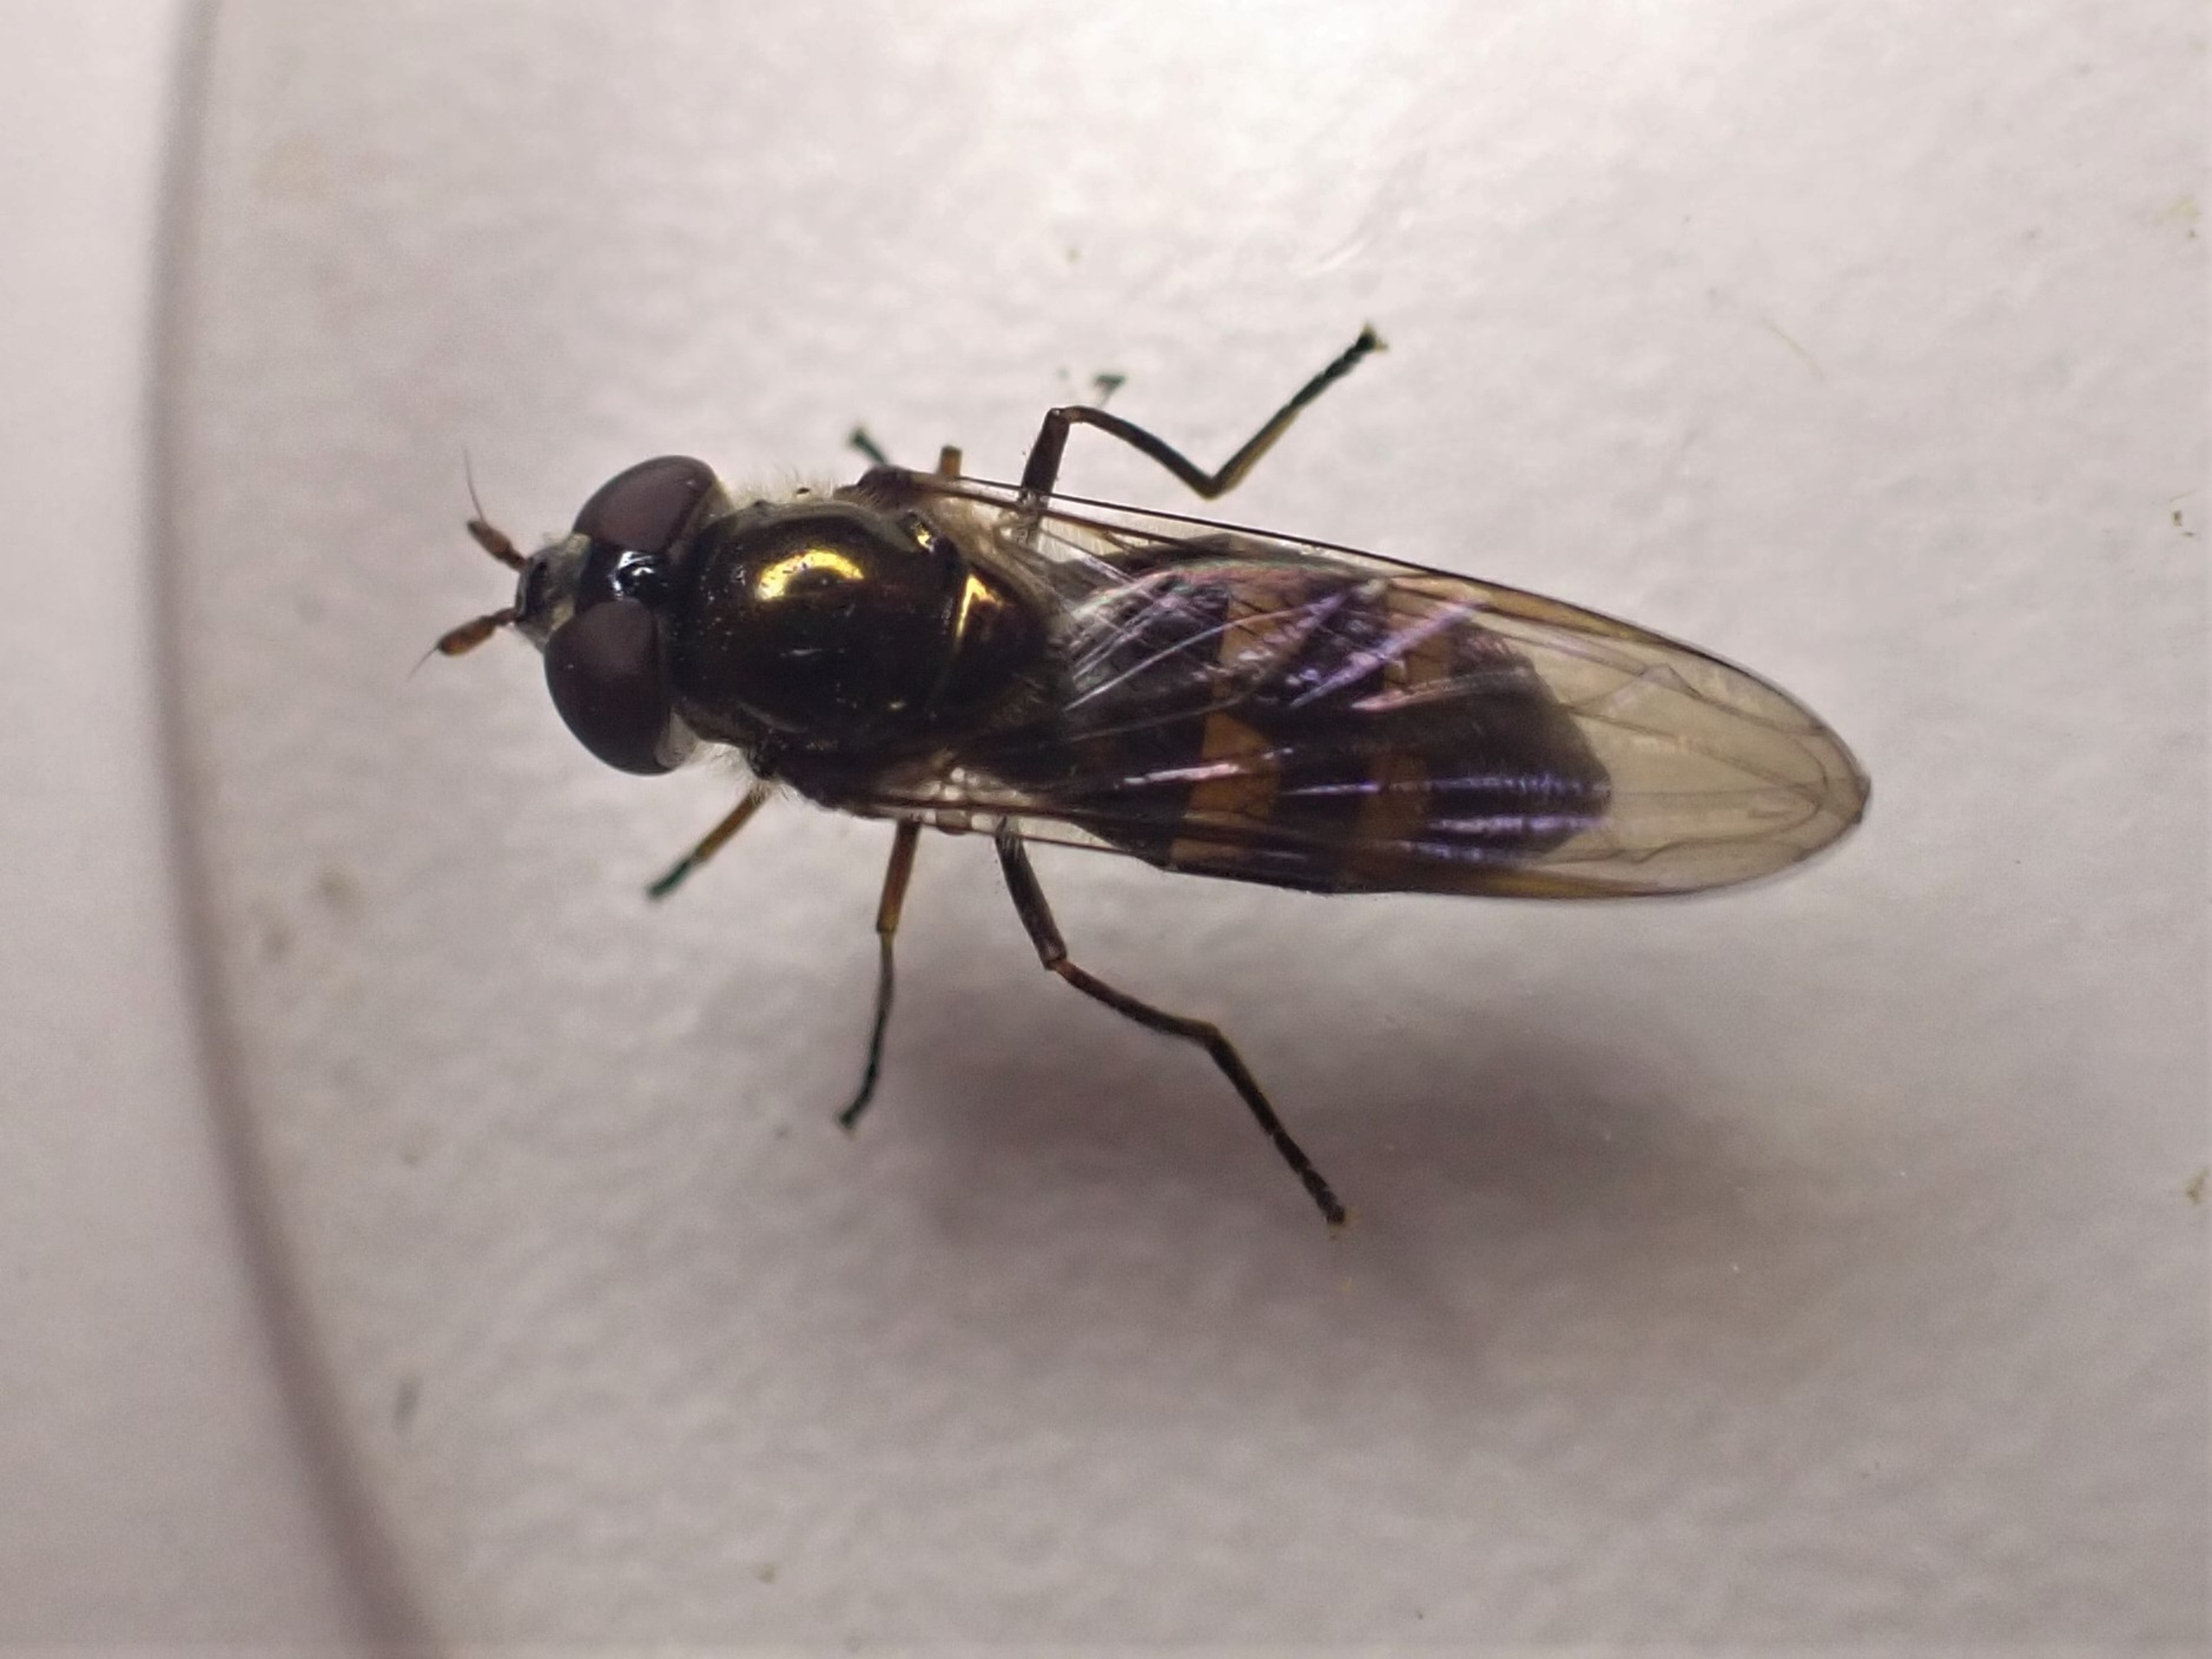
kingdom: Animalia
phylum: Arthropoda
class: Insecta
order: Diptera
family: Syrphidae
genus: Xanthandrus
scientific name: Xanthandrus comtus
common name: Gulhannet svirreflue
